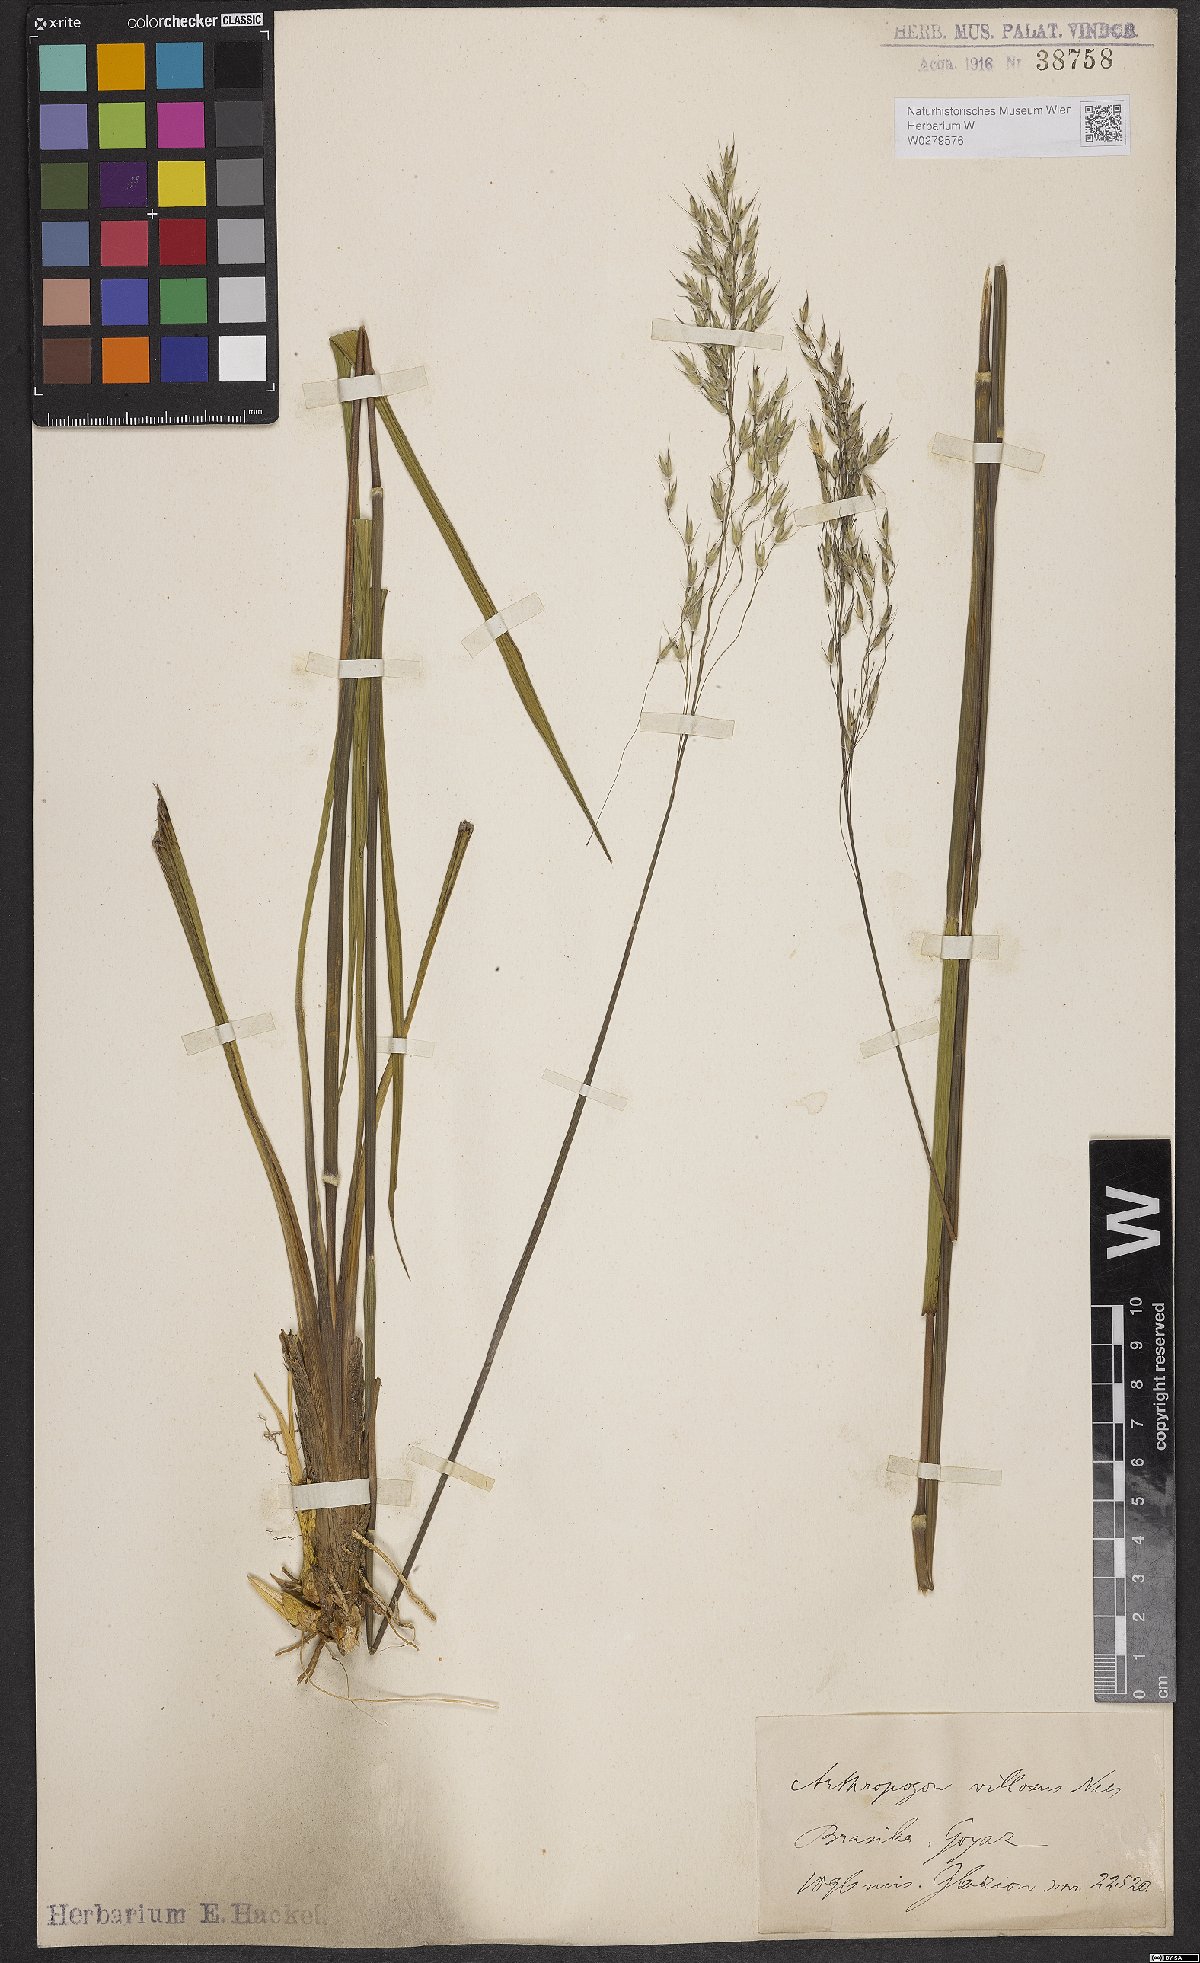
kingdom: Plantae
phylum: Tracheophyta
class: Liliopsida
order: Poales
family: Poaceae
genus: Arthropogon
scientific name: Arthropogon villosus
